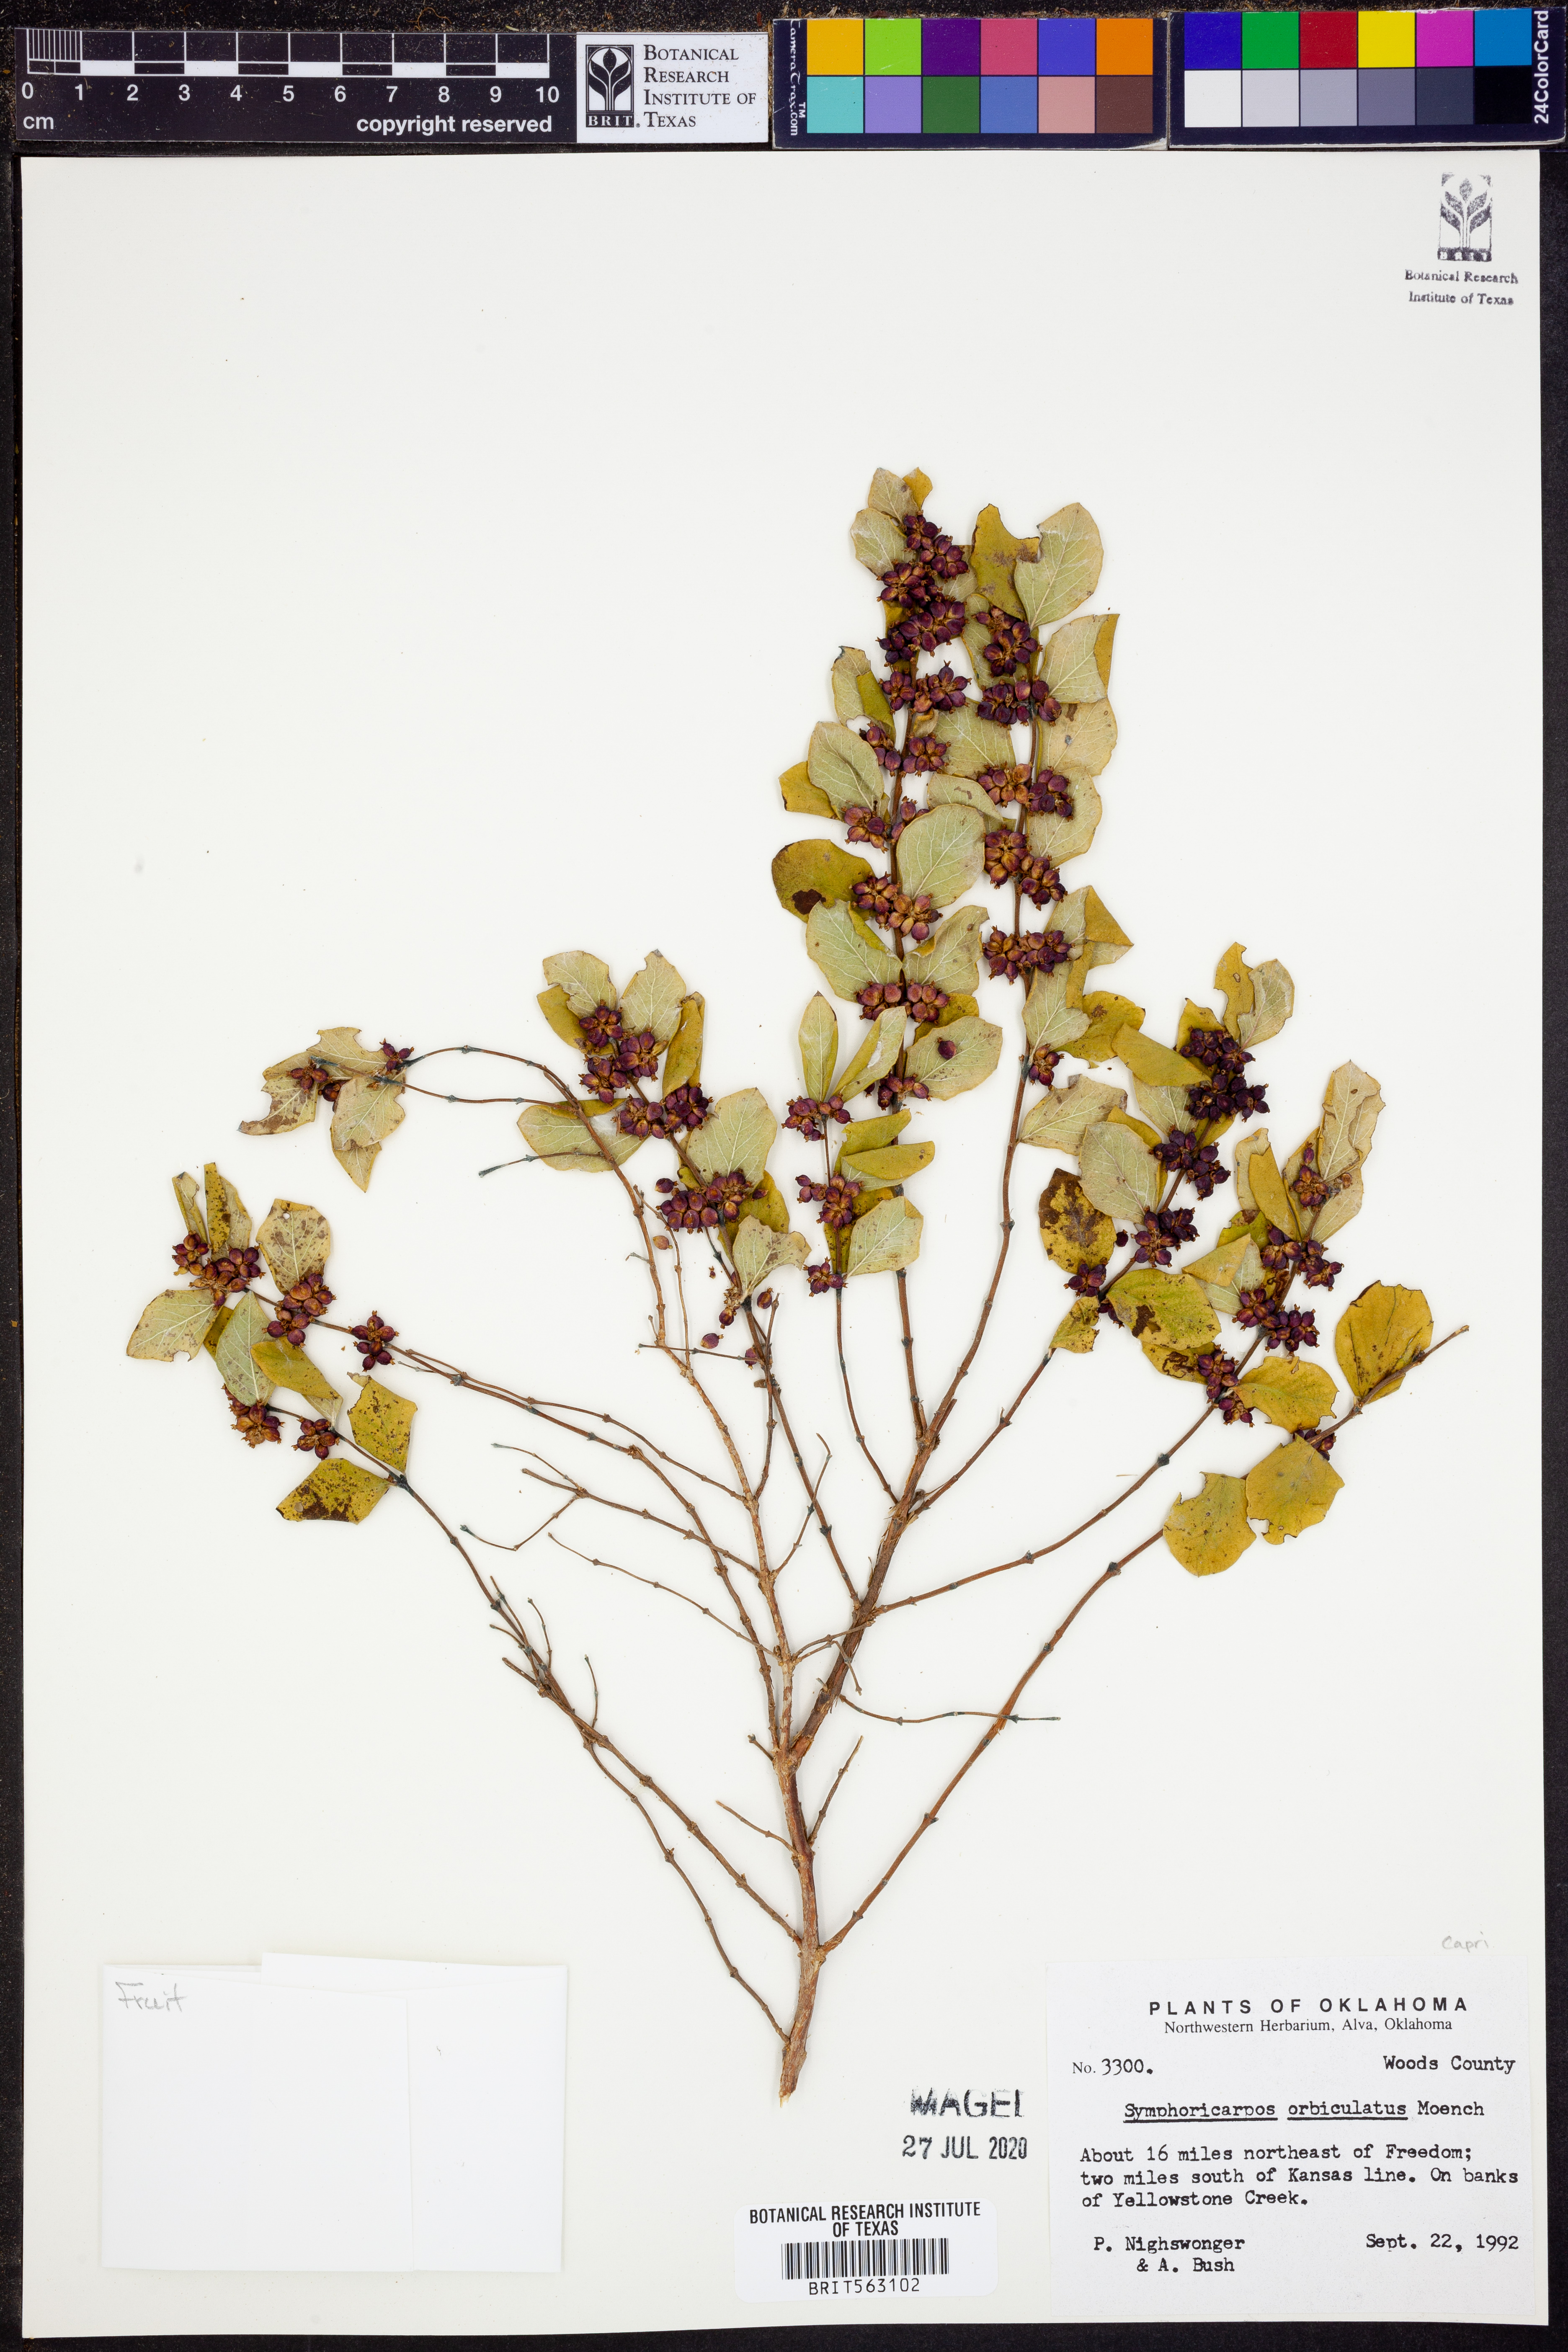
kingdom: Plantae
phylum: Tracheophyta
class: Magnoliopsida
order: Dipsacales
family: Caprifoliaceae
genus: Symphoricarpos
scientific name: Symphoricarpos orbiculatus
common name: Coralberry
